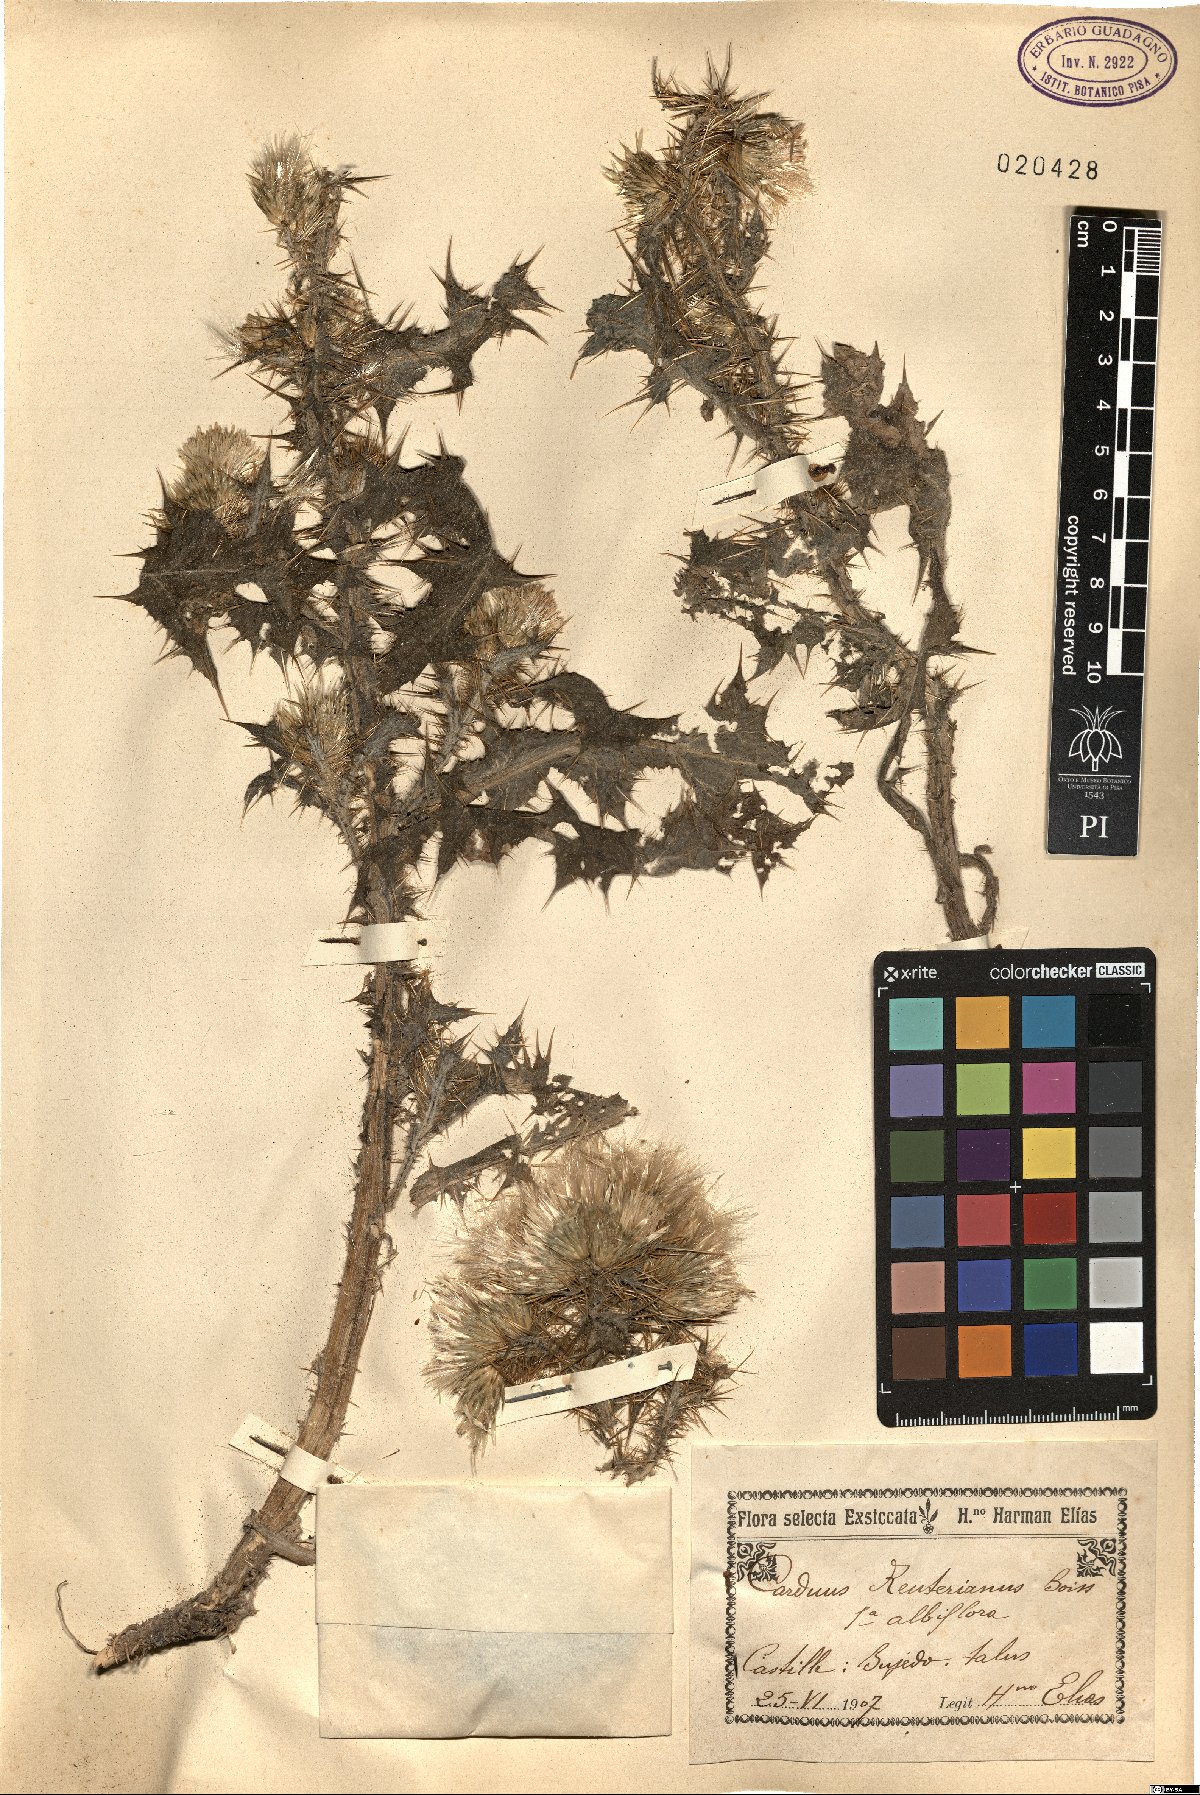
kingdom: Plantae
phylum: Tracheophyta
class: Magnoliopsida
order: Asterales
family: Asteraceae
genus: Carduus
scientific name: Carduus bourgeanus
